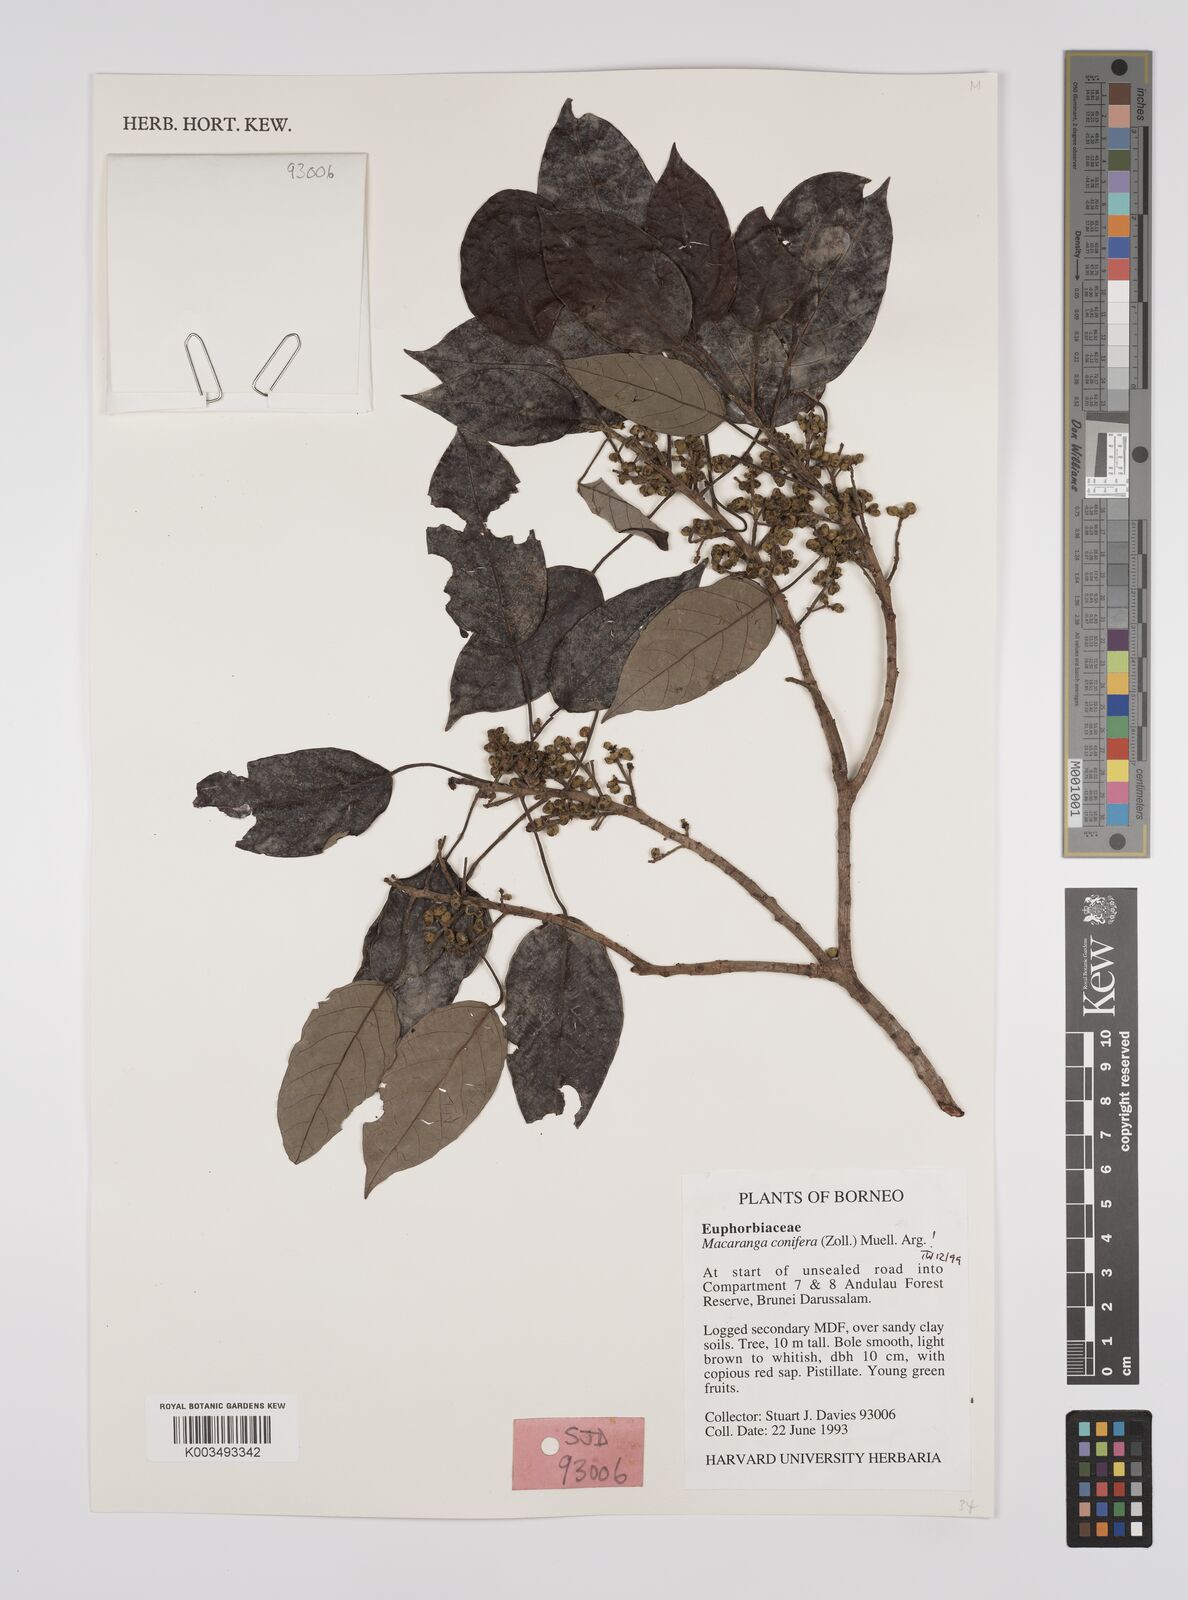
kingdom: Plantae
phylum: Tracheophyta
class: Magnoliopsida
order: Malpighiales
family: Euphorbiaceae
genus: Macaranga
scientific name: Macaranga conifera
